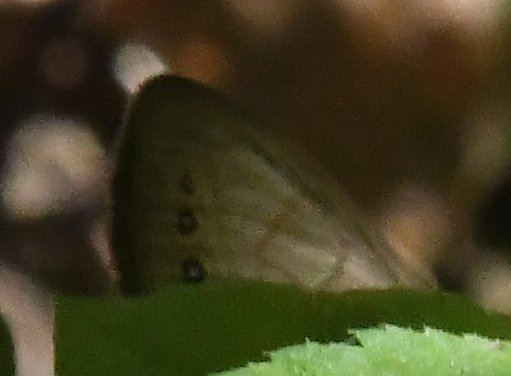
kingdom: Animalia
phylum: Arthropoda
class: Insecta
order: Lepidoptera
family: Nymphalidae
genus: Lethe
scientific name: Lethe eurydice
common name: Appalachian Eyed Brown
